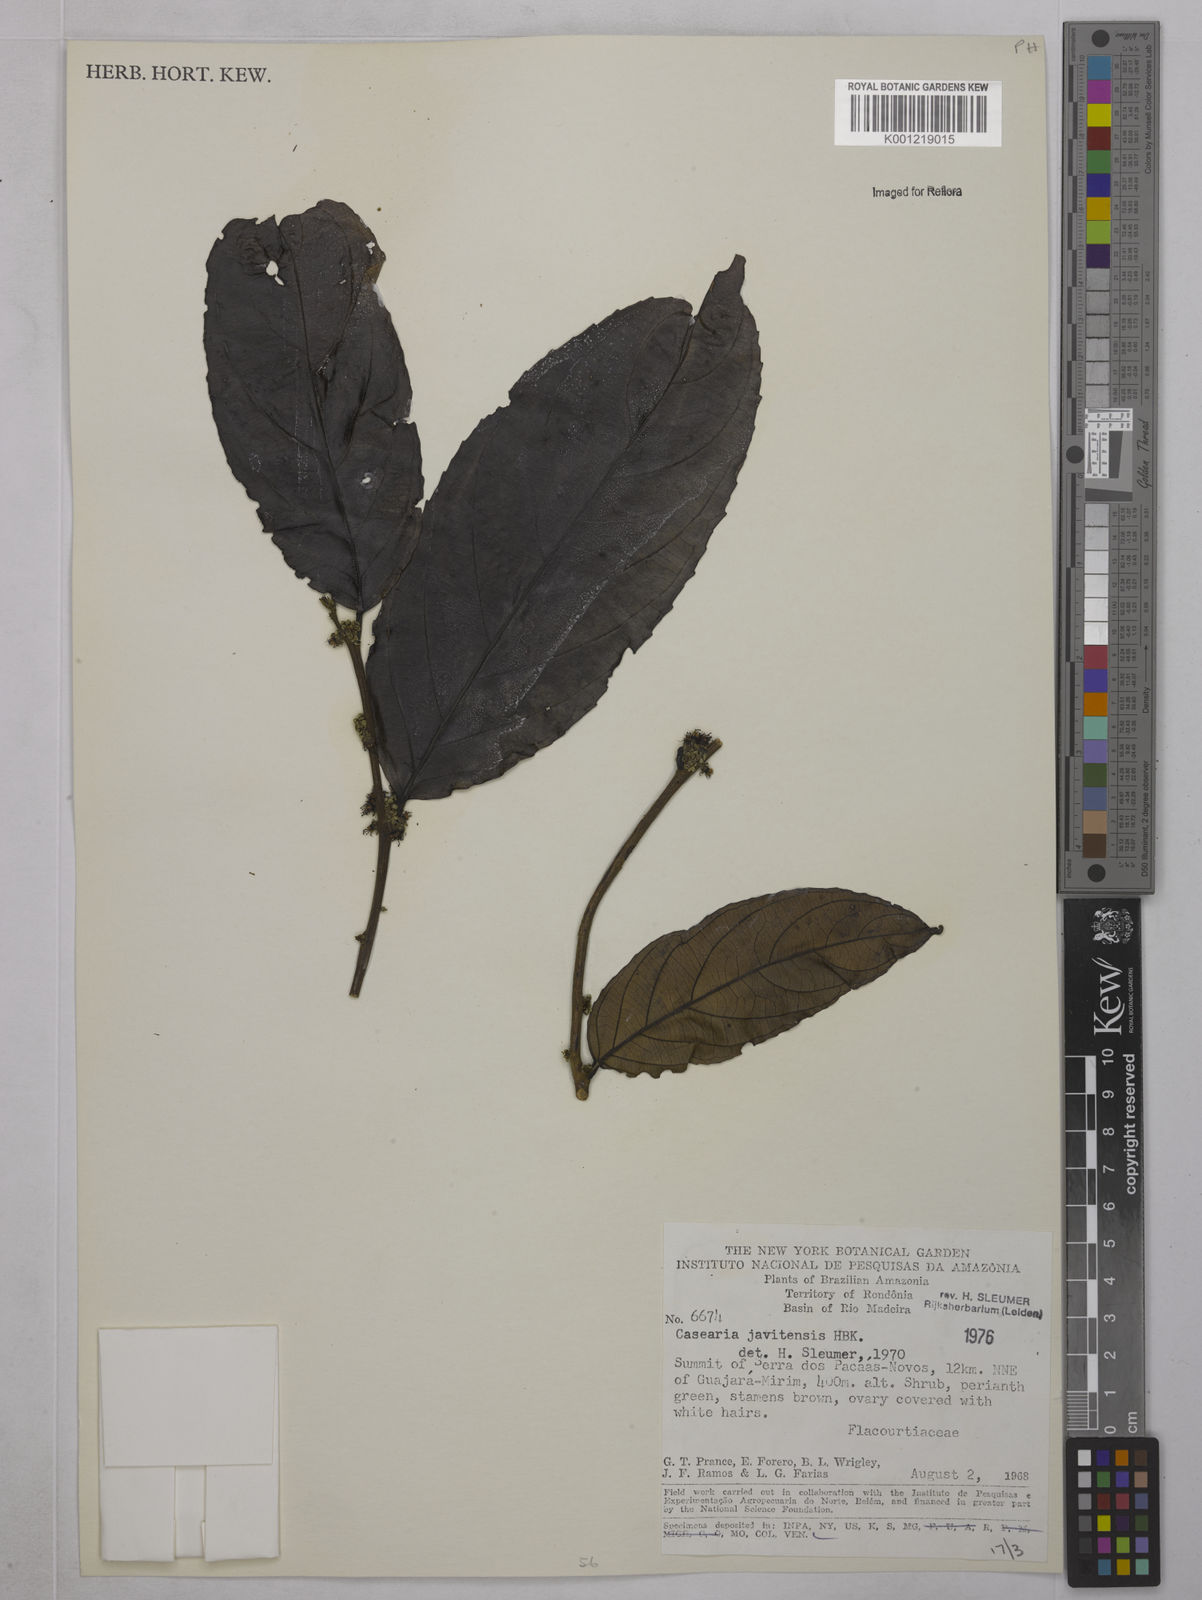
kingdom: Plantae
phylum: Tracheophyta
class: Magnoliopsida
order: Malpighiales
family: Salicaceae
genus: Piparea
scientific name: Piparea multiflora
